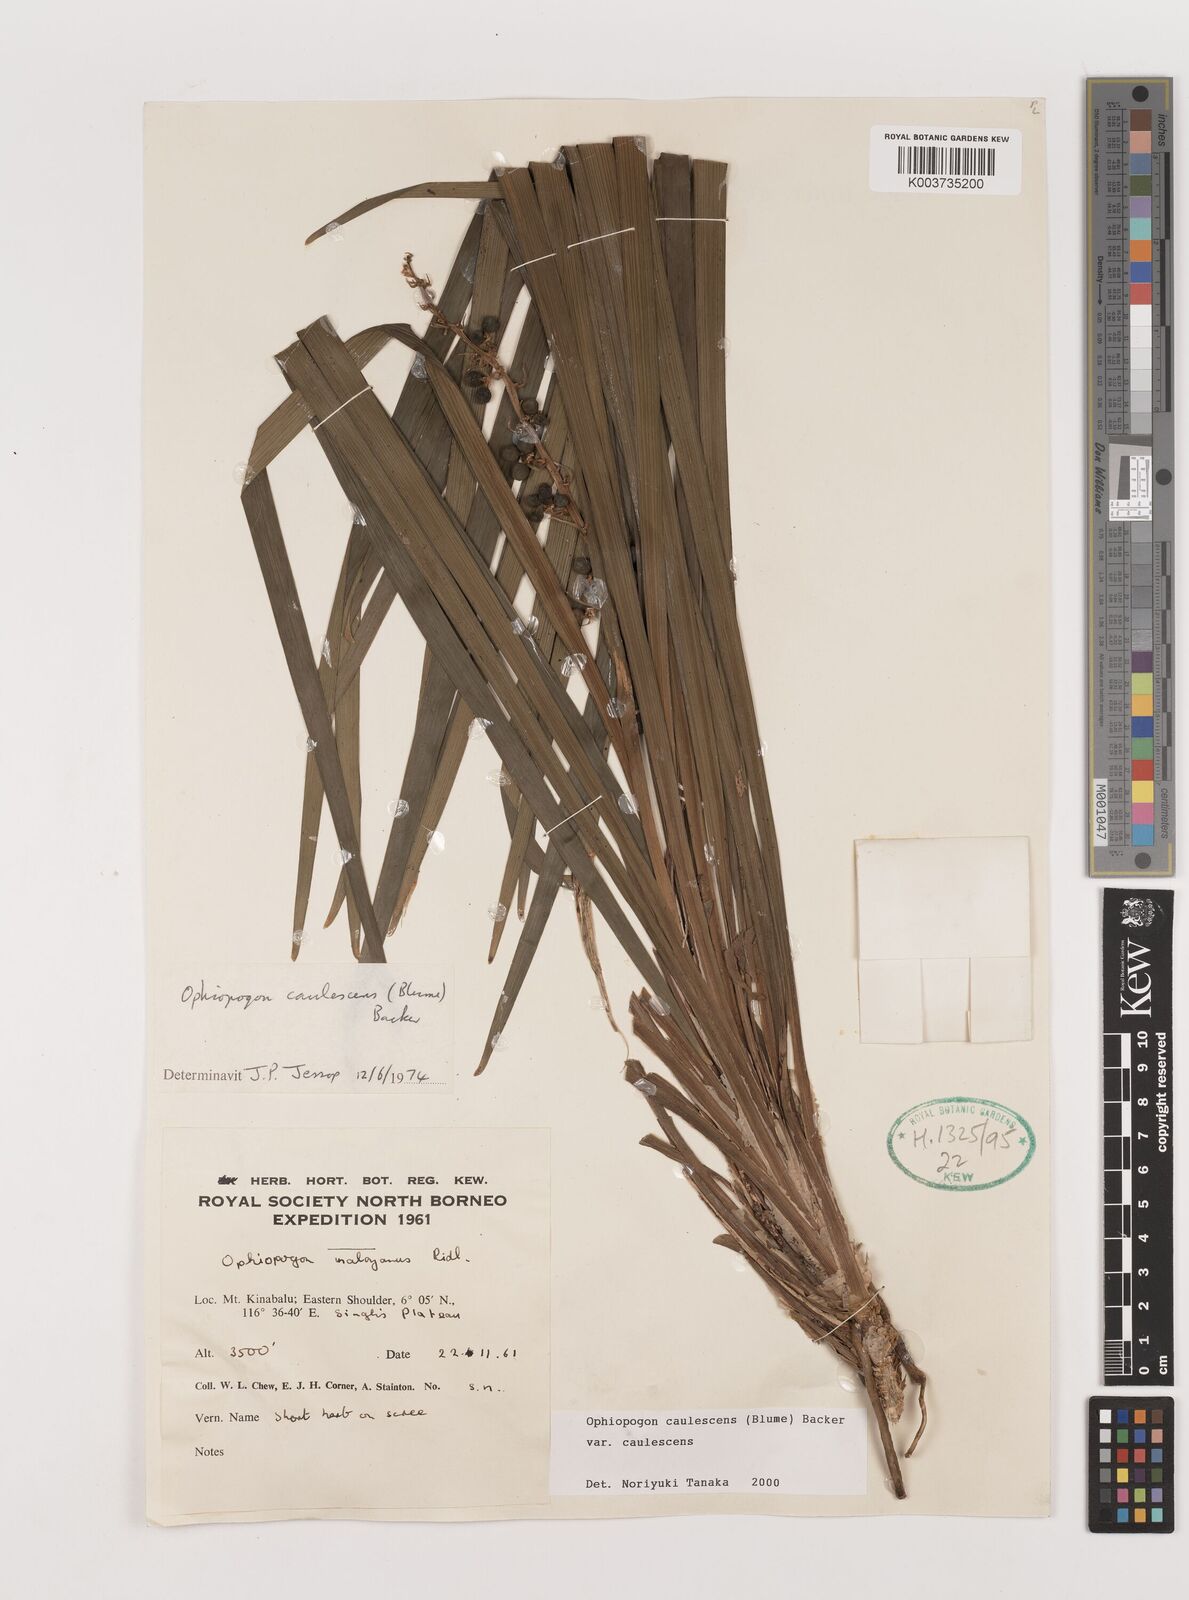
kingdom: Plantae
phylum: Tracheophyta
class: Liliopsida
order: Asparagales
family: Asparagaceae
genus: Ophiopogon
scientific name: Ophiopogon caulescens
